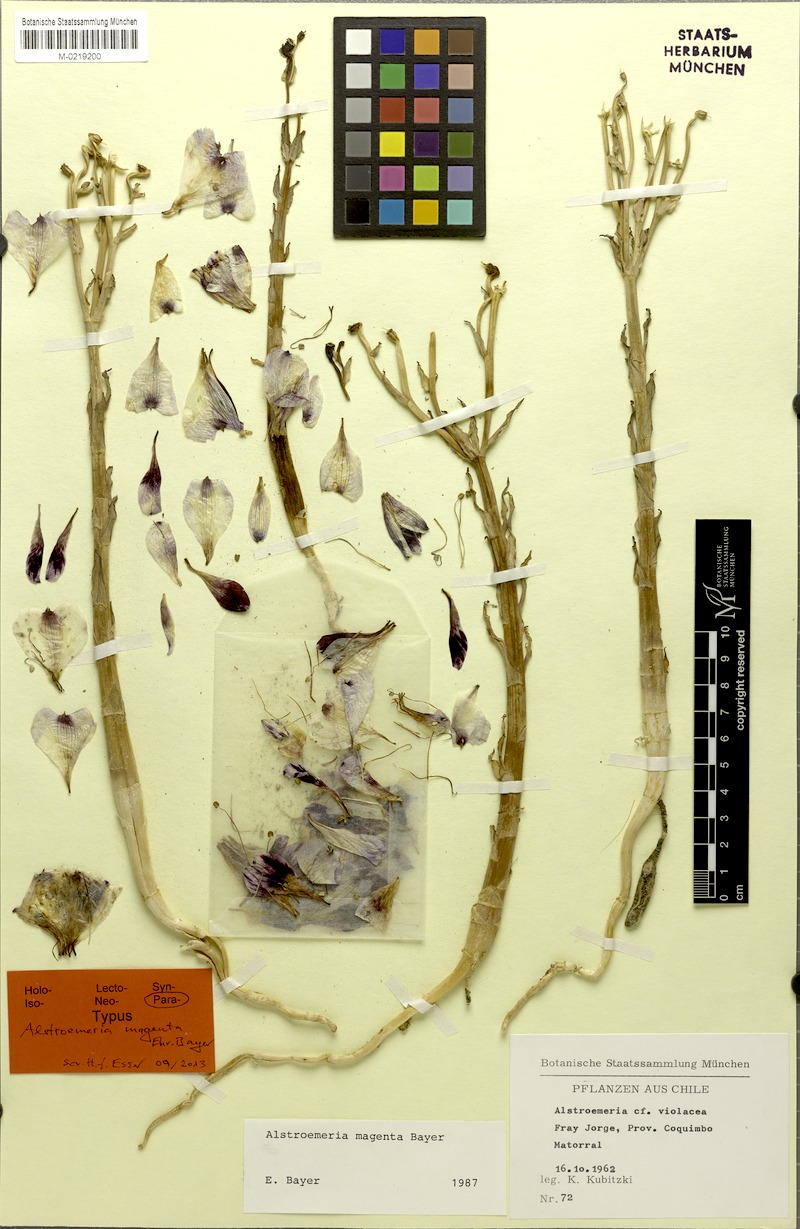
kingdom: Plantae
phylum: Tracheophyta
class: Liliopsida
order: Liliales
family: Alstroemeriaceae
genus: Alstroemeria
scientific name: Alstroemeria magnifica
